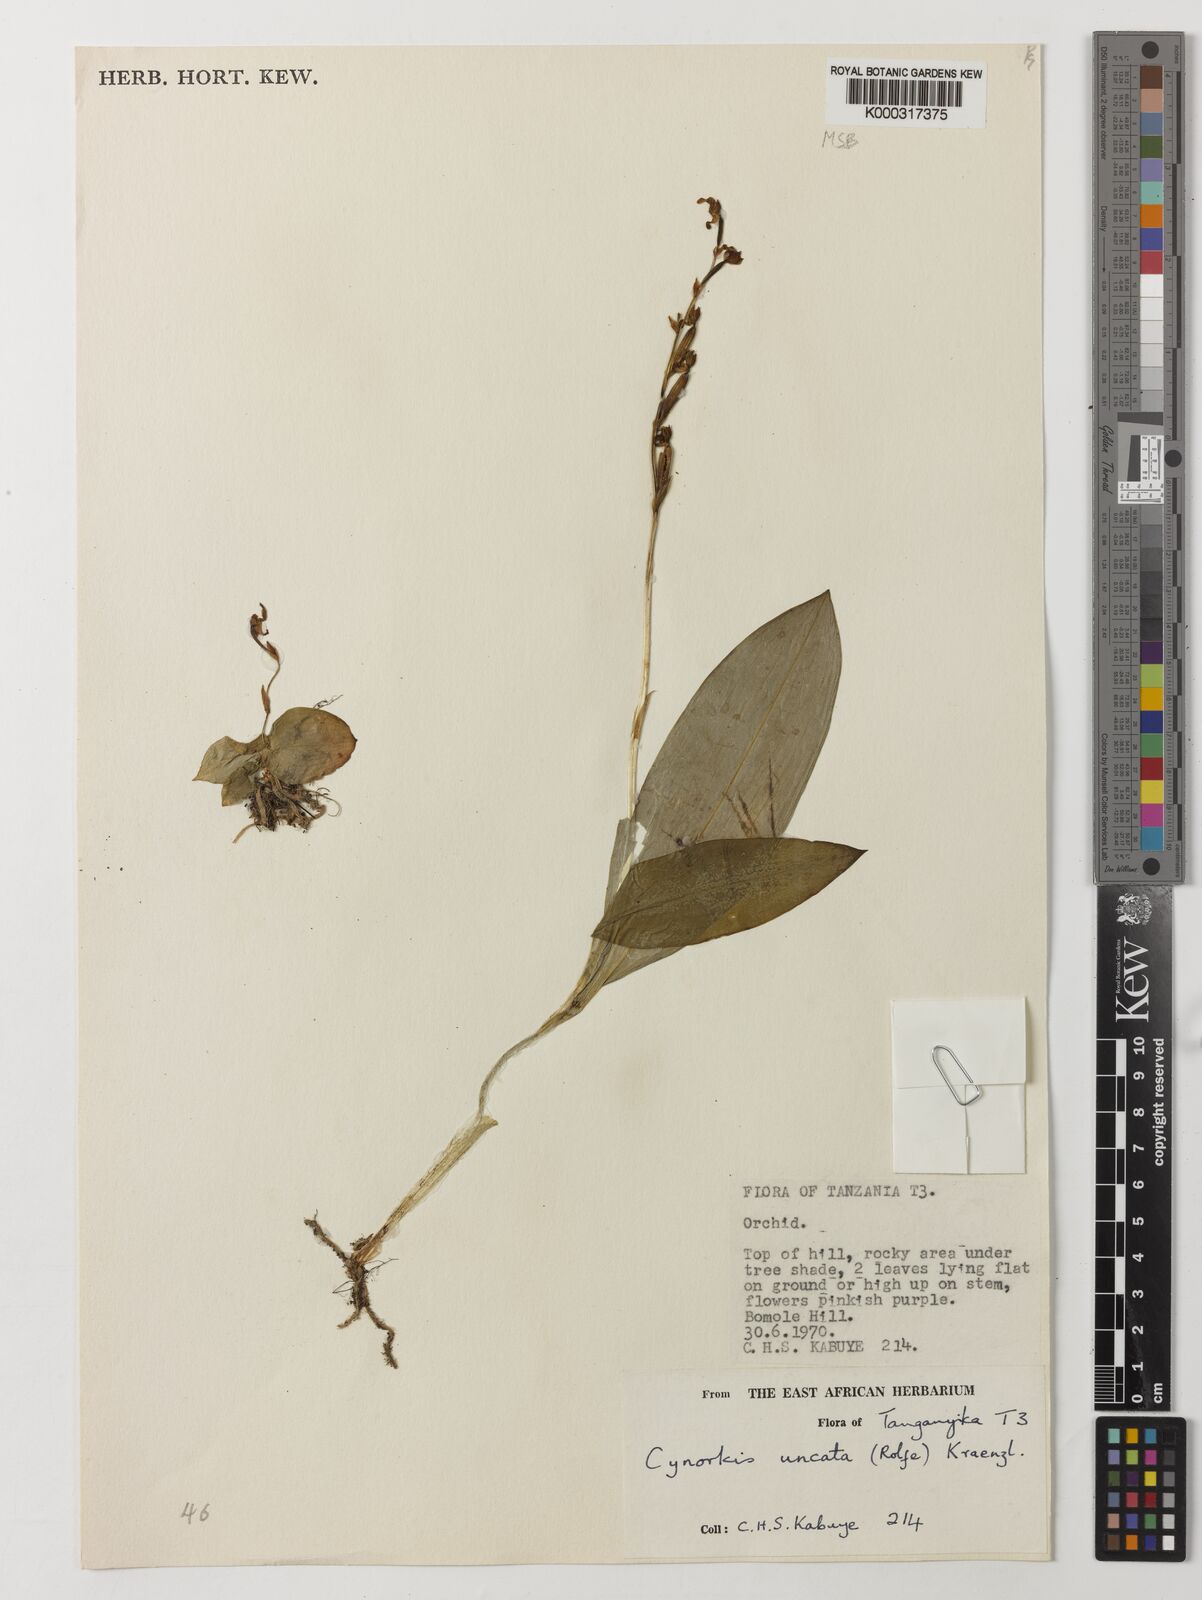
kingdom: Plantae
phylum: Tracheophyta
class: Liliopsida
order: Asparagales
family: Orchidaceae
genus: Cynorkis
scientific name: Cynorkis uncata
